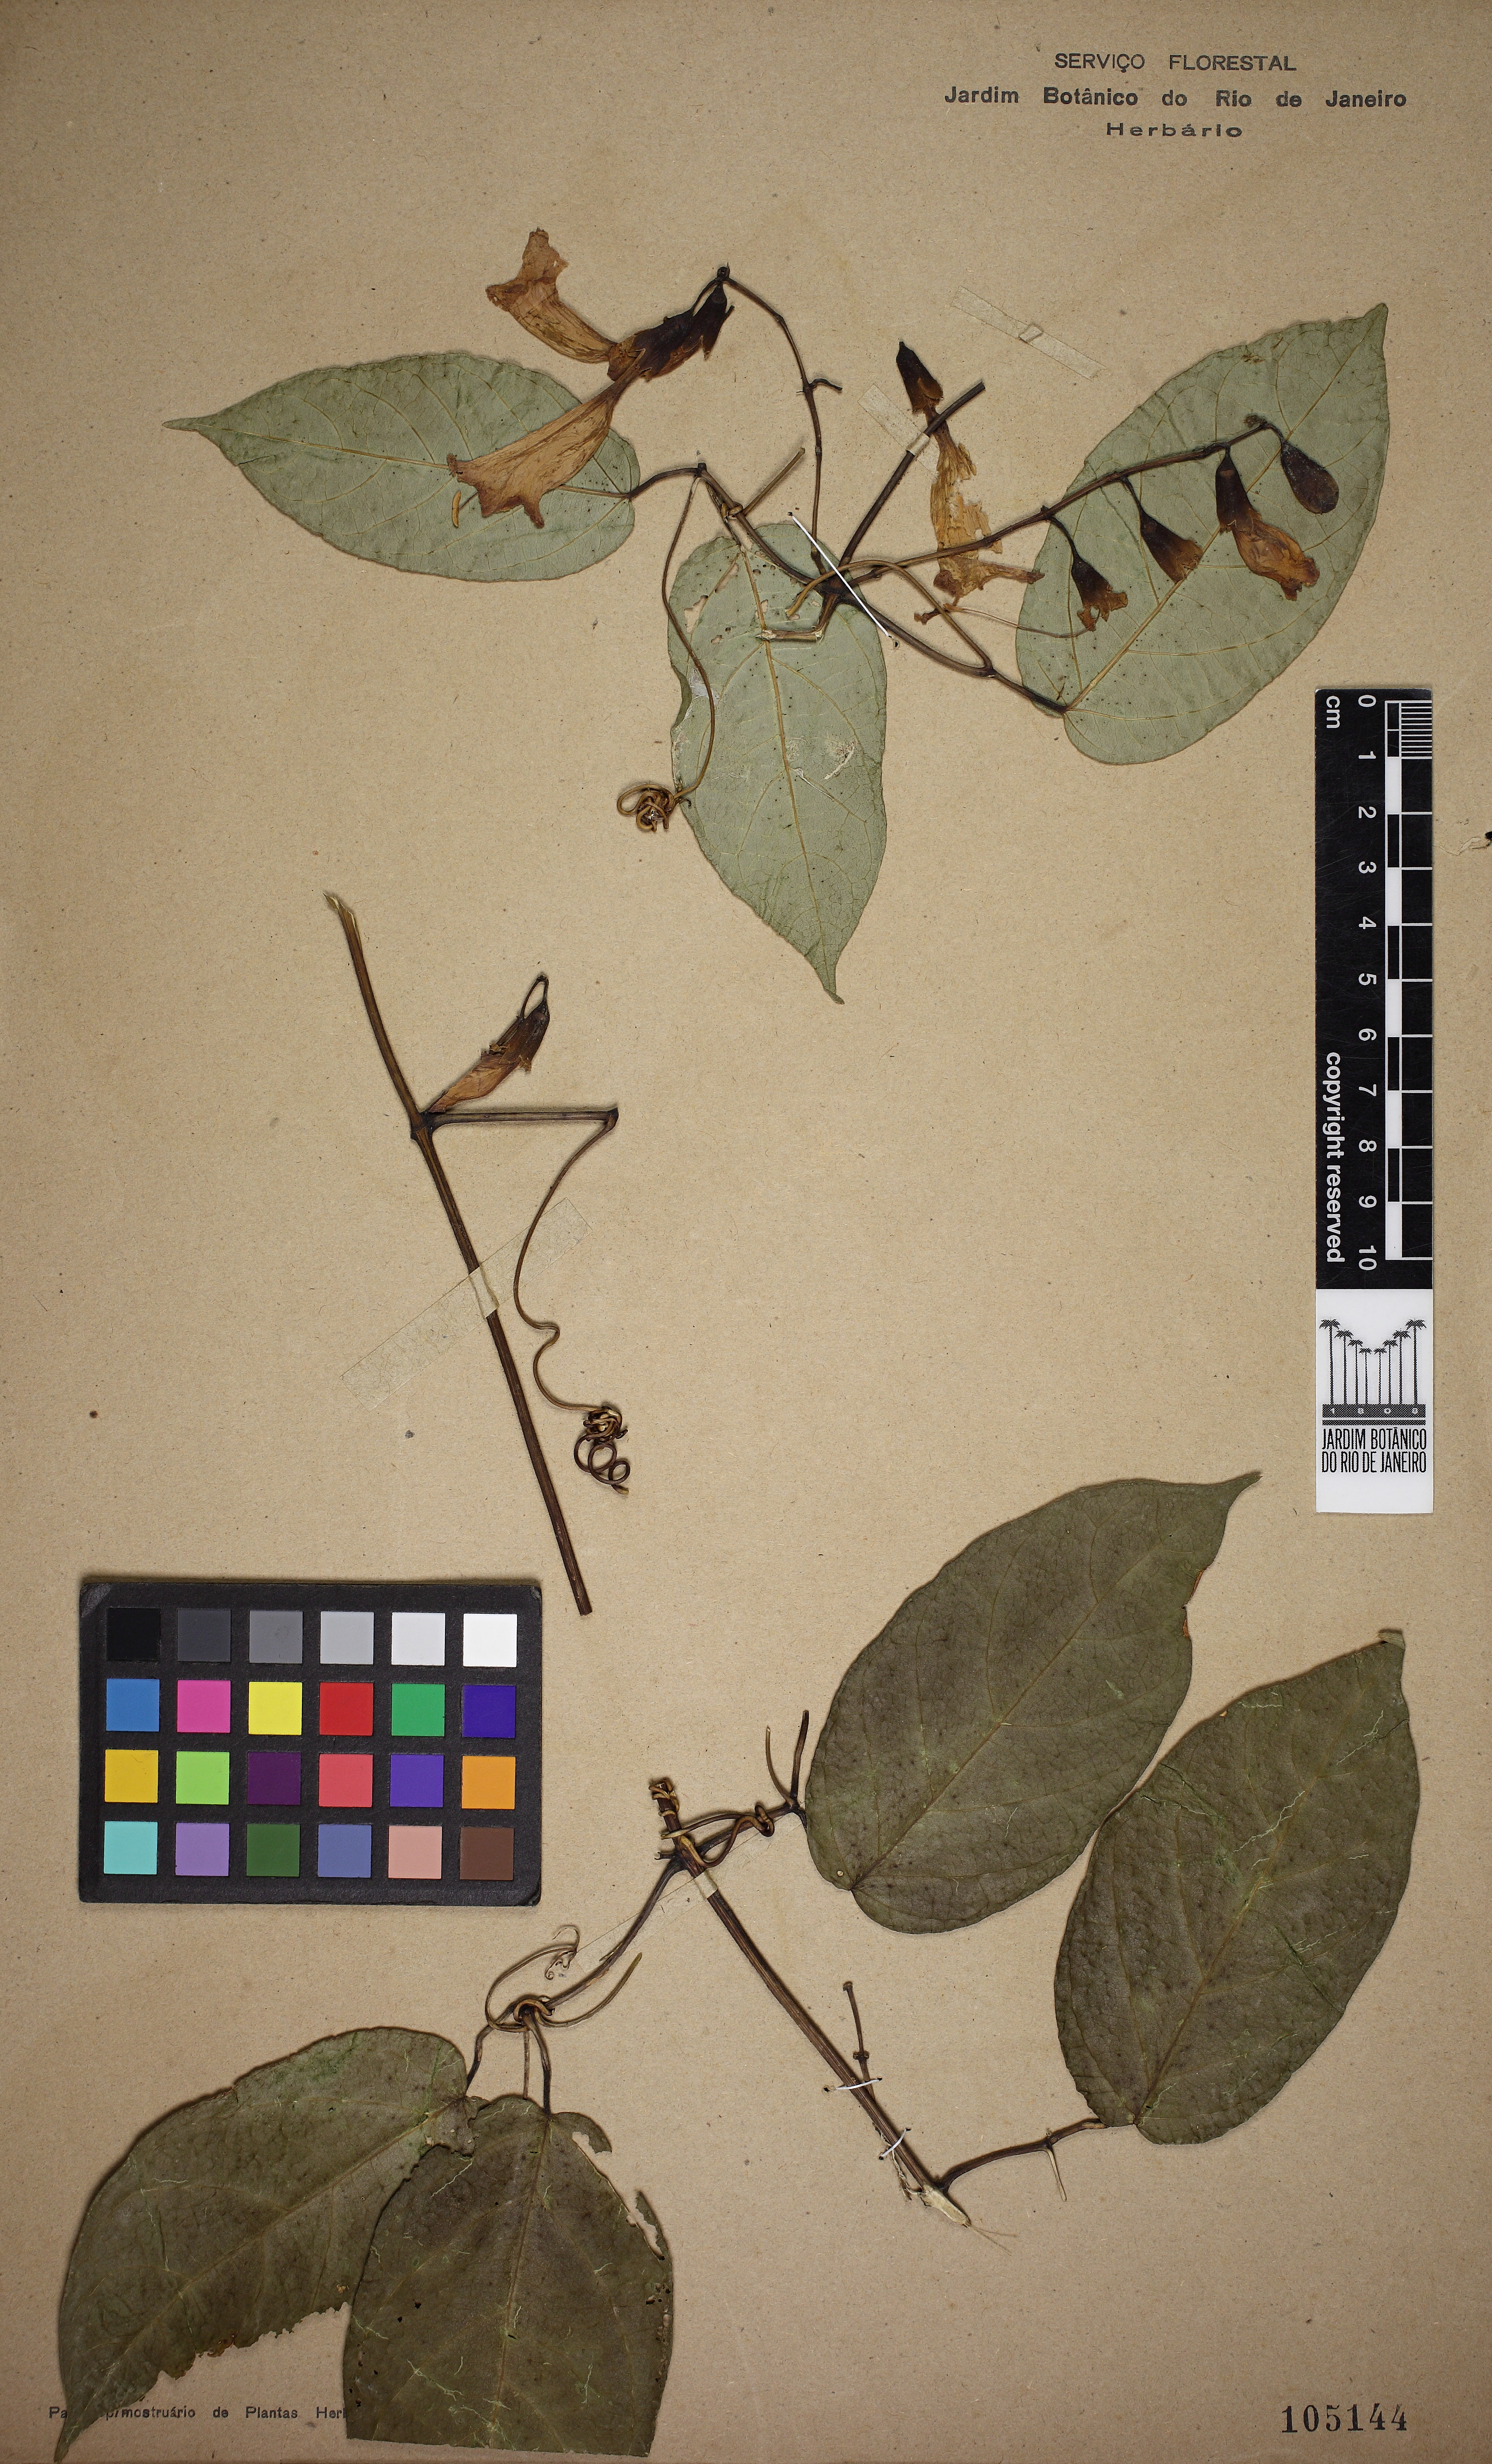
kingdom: Animalia
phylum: Arthropoda
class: Insecta
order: Coleoptera
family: Chrysomelidae
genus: Martinella
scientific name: Martinella obovata
